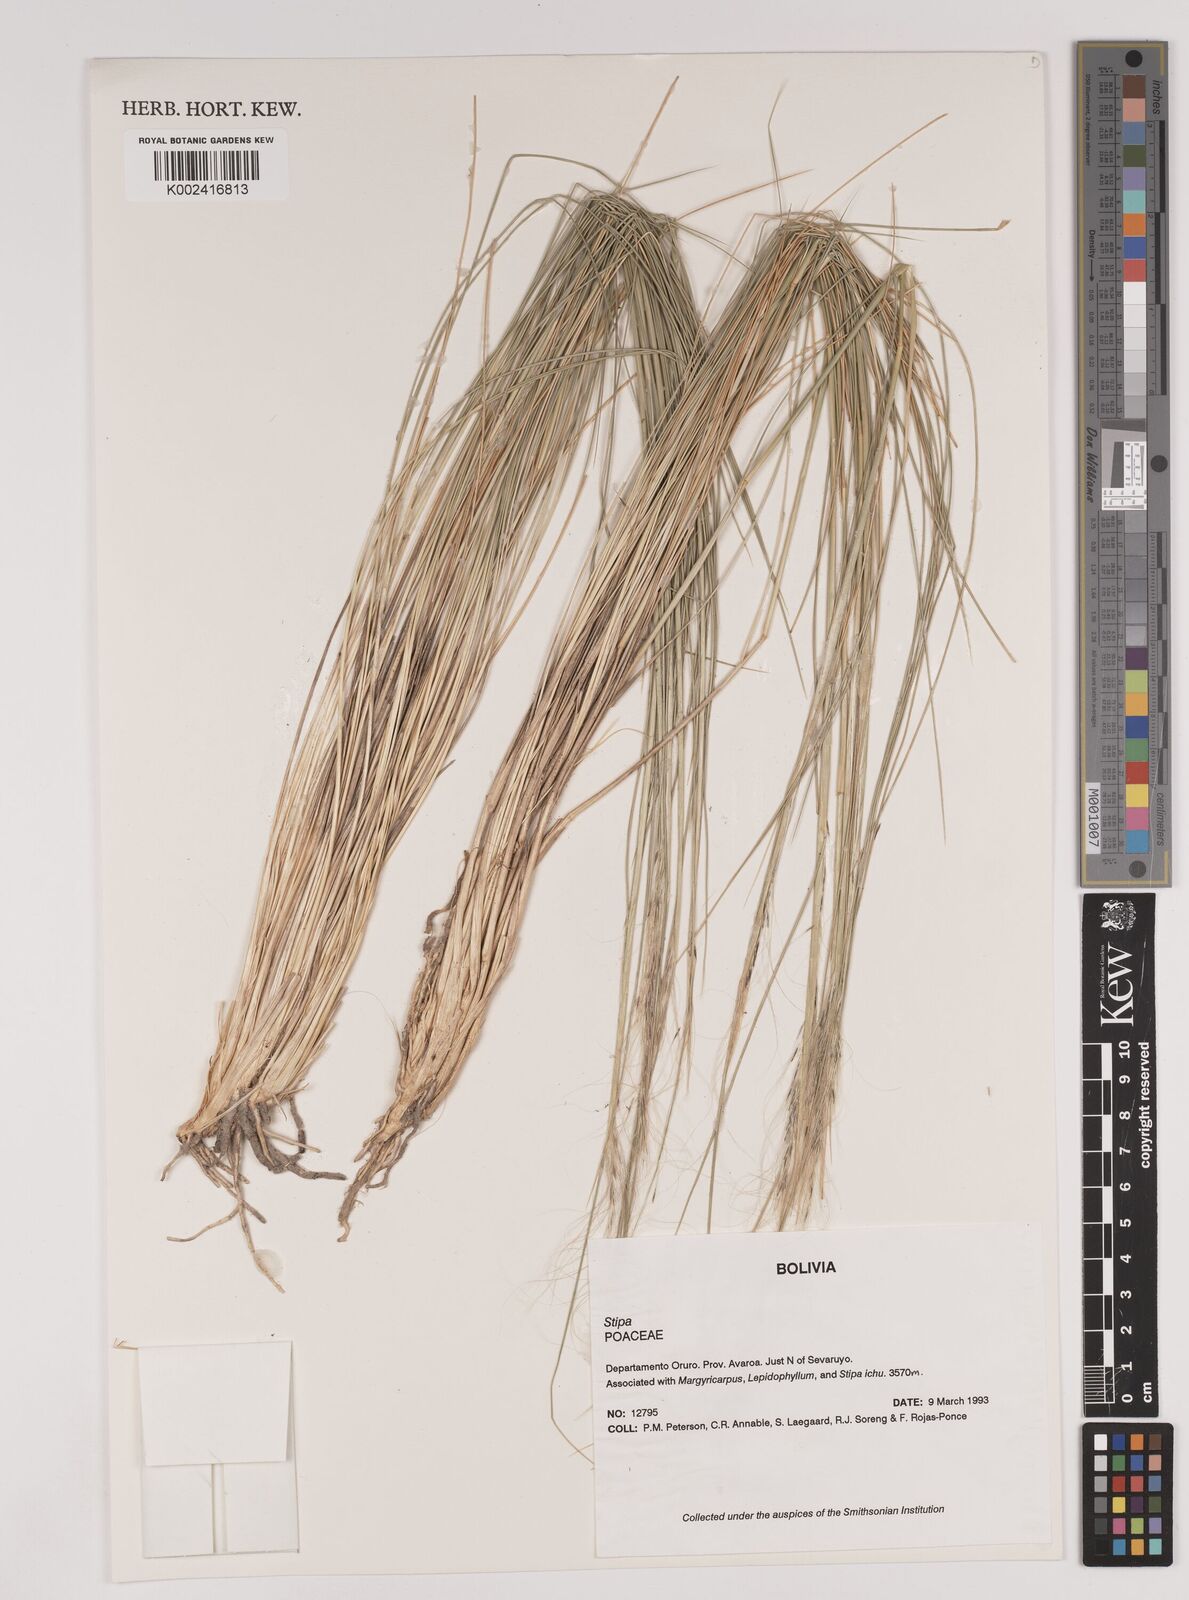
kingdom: Plantae
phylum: Tracheophyta
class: Liliopsida
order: Poales
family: Poaceae
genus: Stipa
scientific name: Stipa
